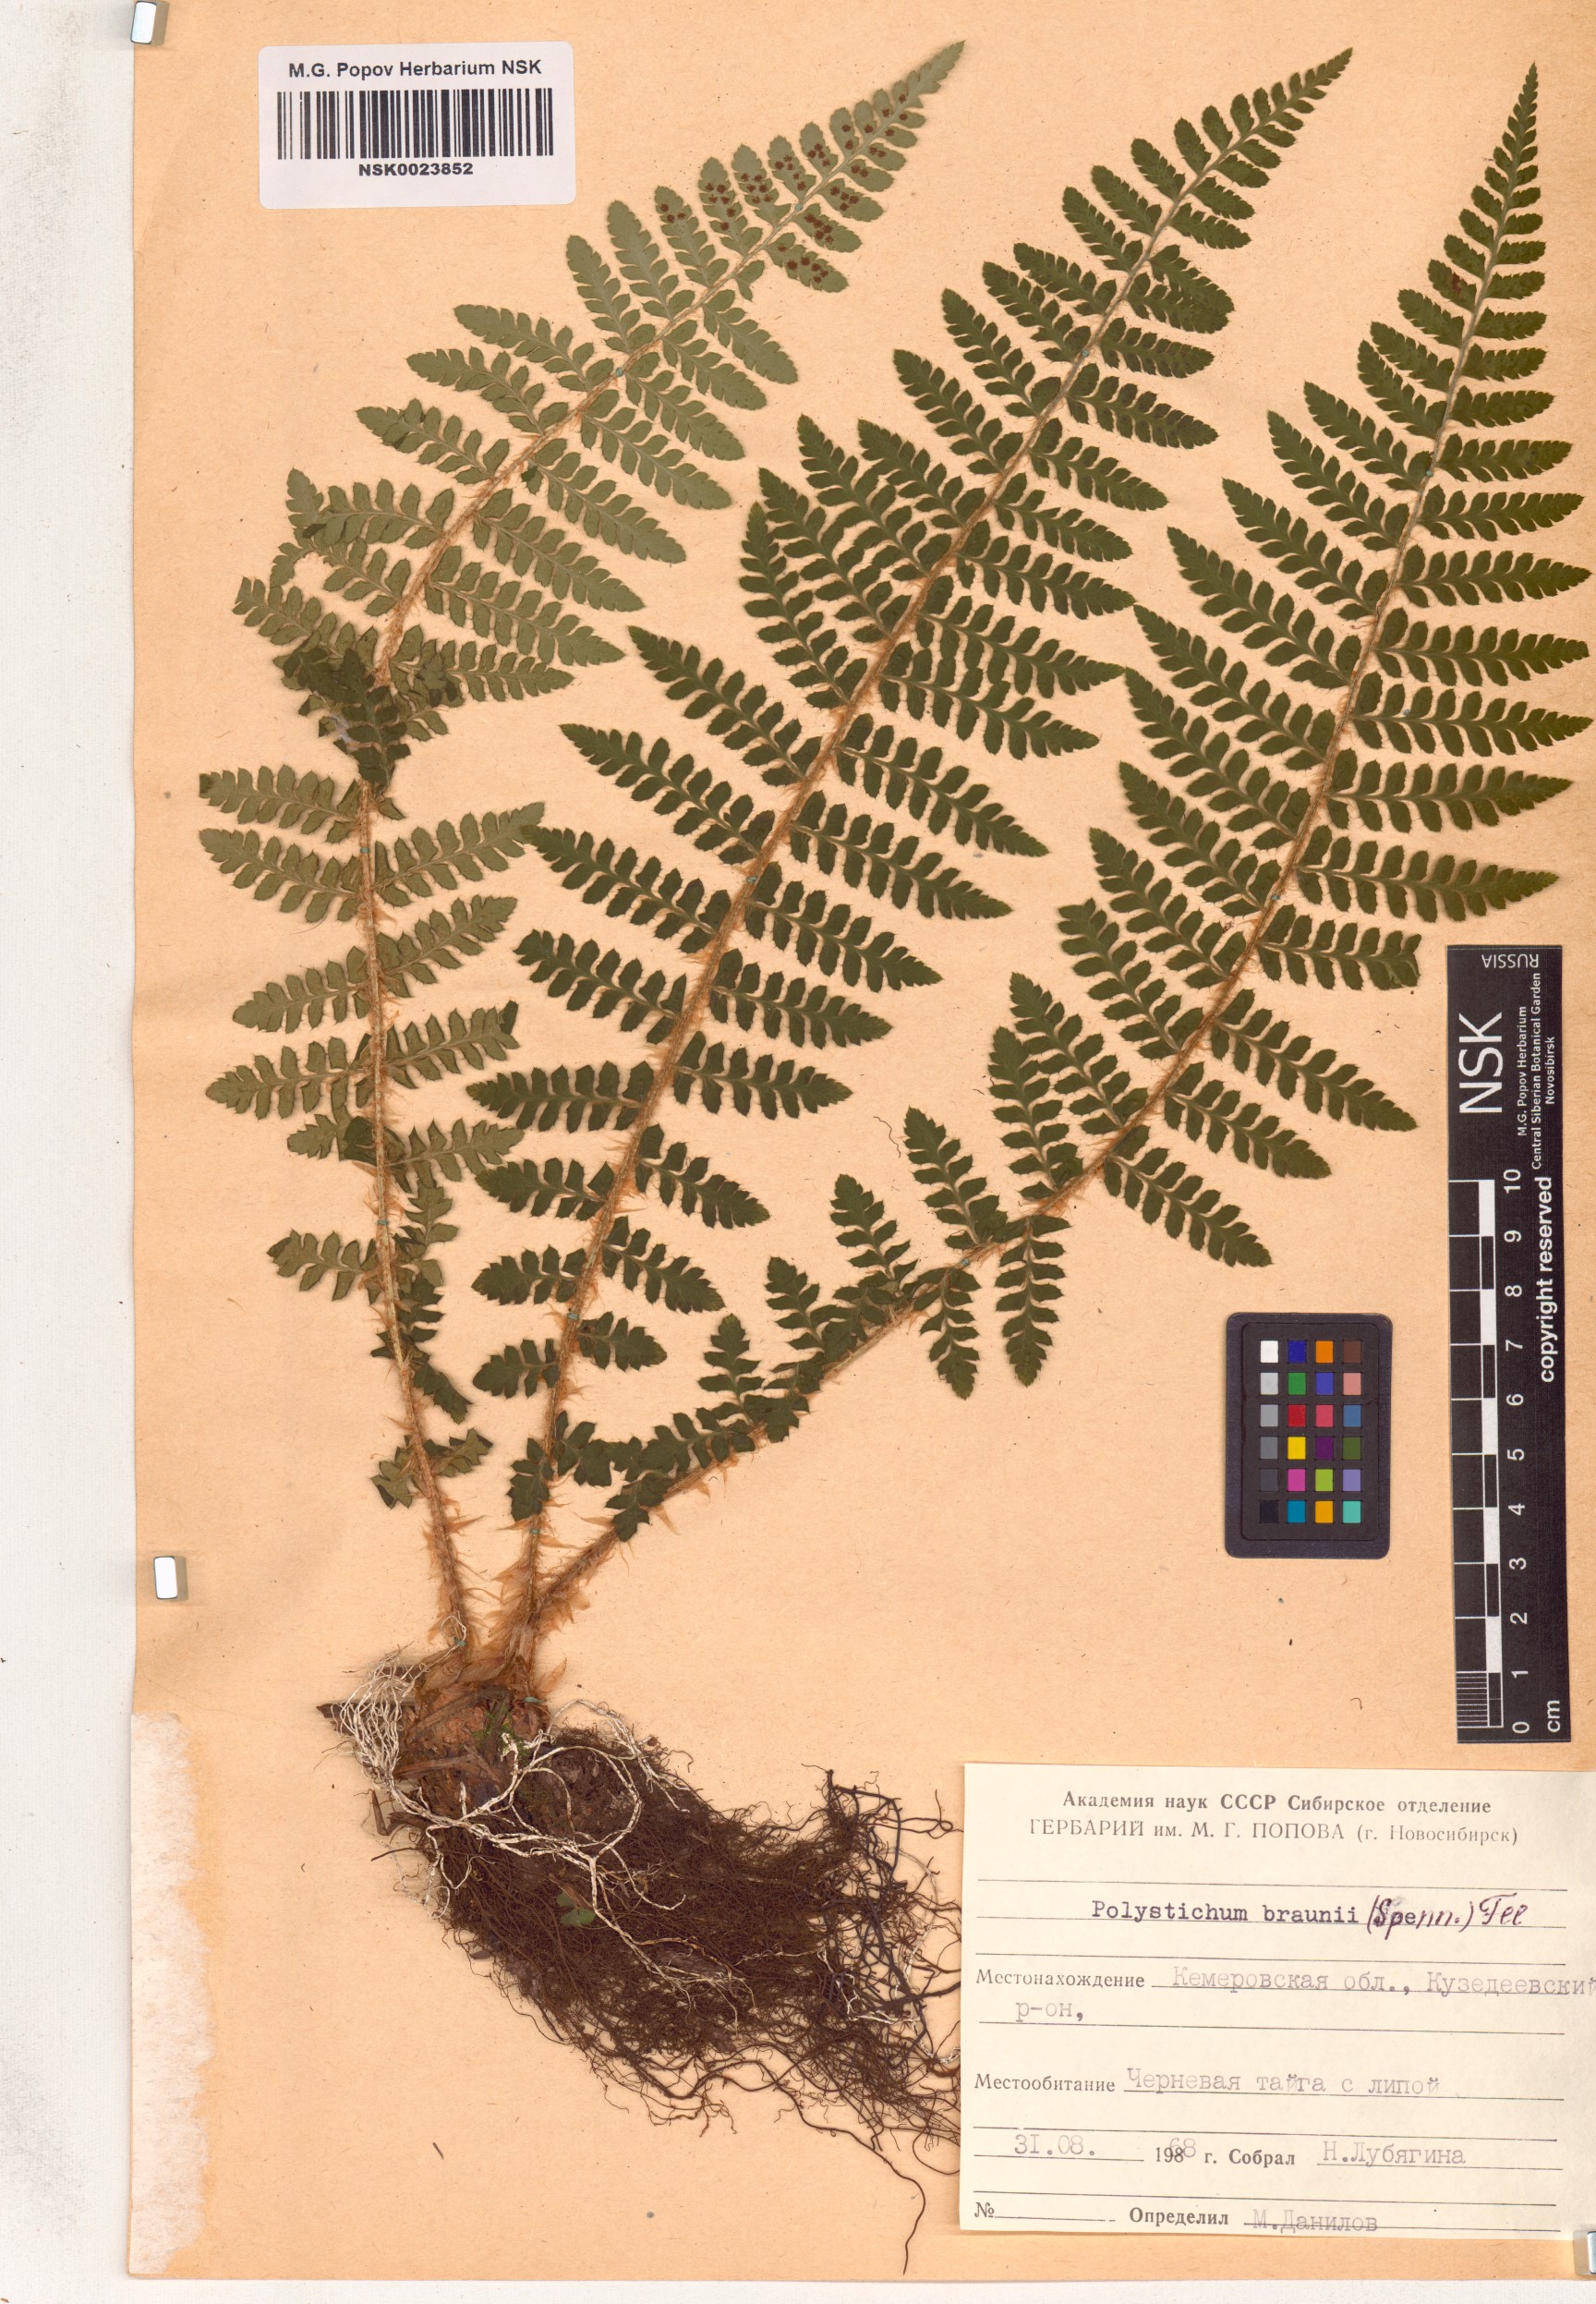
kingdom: Plantae
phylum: Tracheophyta
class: Polypodiopsida
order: Polypodiales
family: Dryopteridaceae
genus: Polystichum
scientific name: Polystichum braunii
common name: Braun's holly fern
